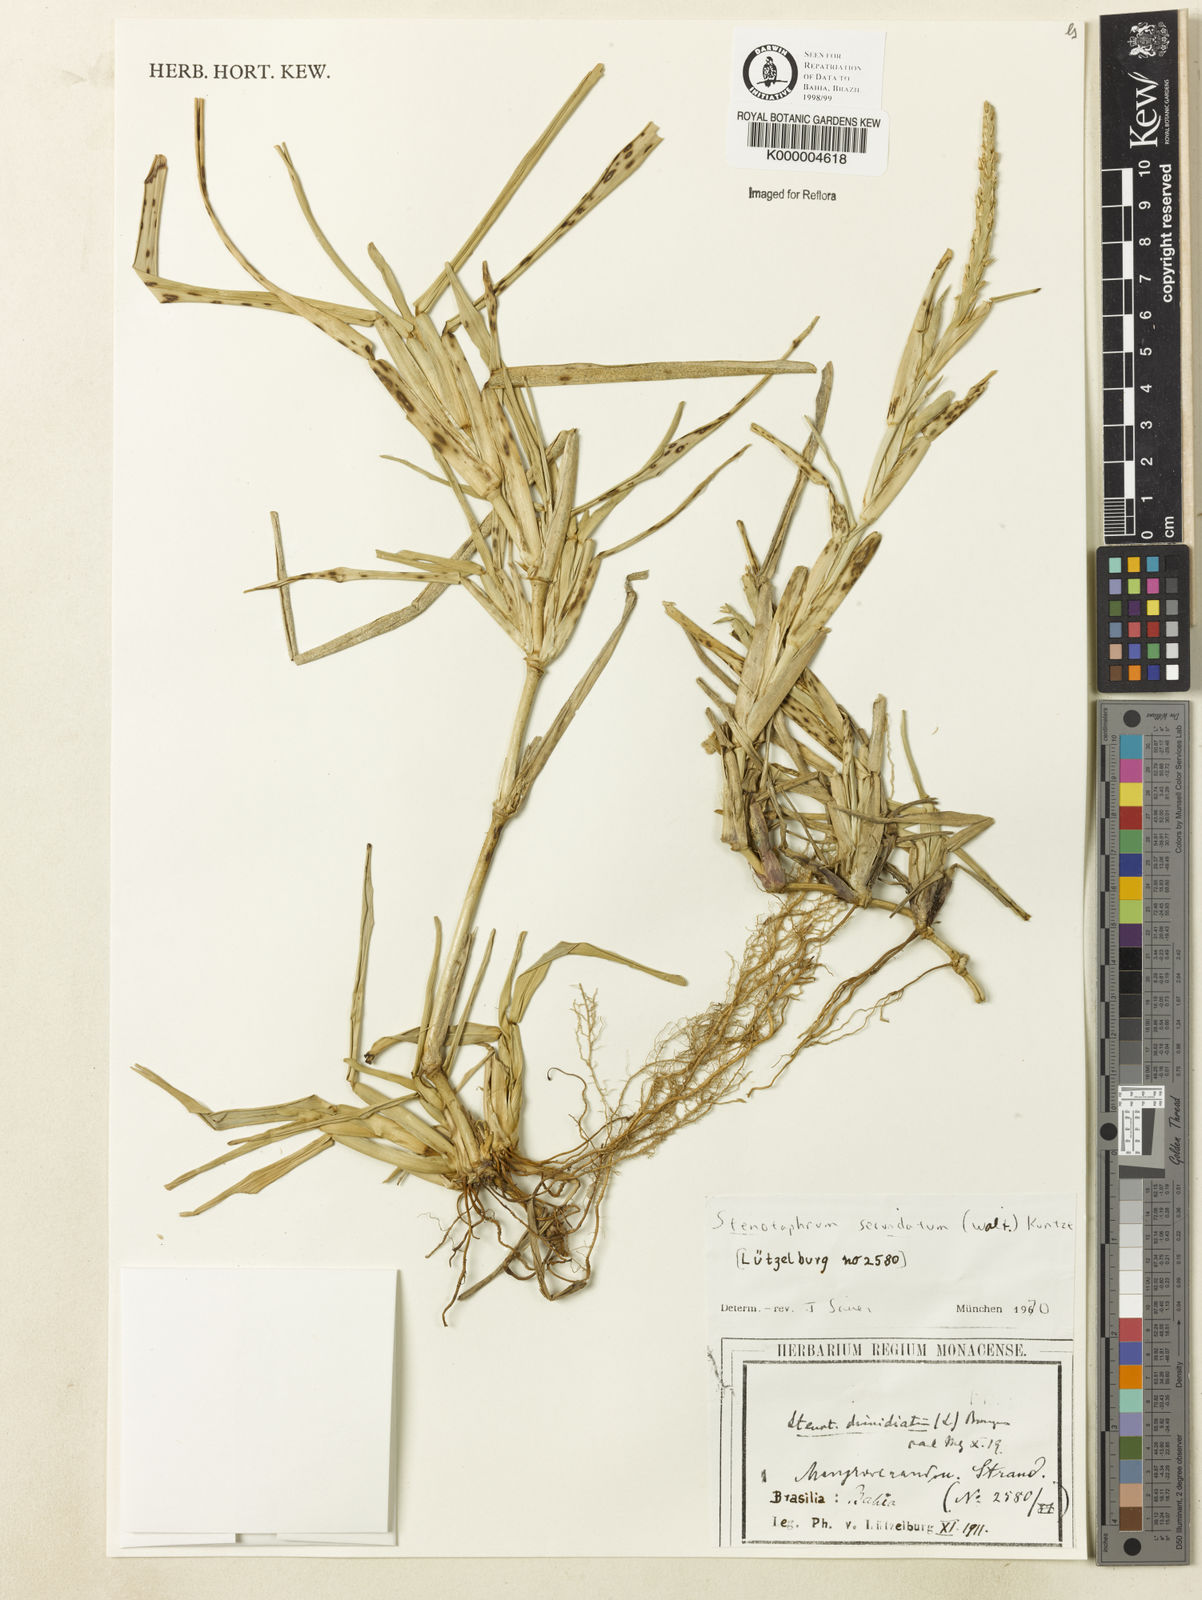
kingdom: Plantae
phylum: Tracheophyta
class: Liliopsida
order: Poales
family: Poaceae
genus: Stenotaphrum
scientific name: Stenotaphrum secundatum
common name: St. augustine grass
